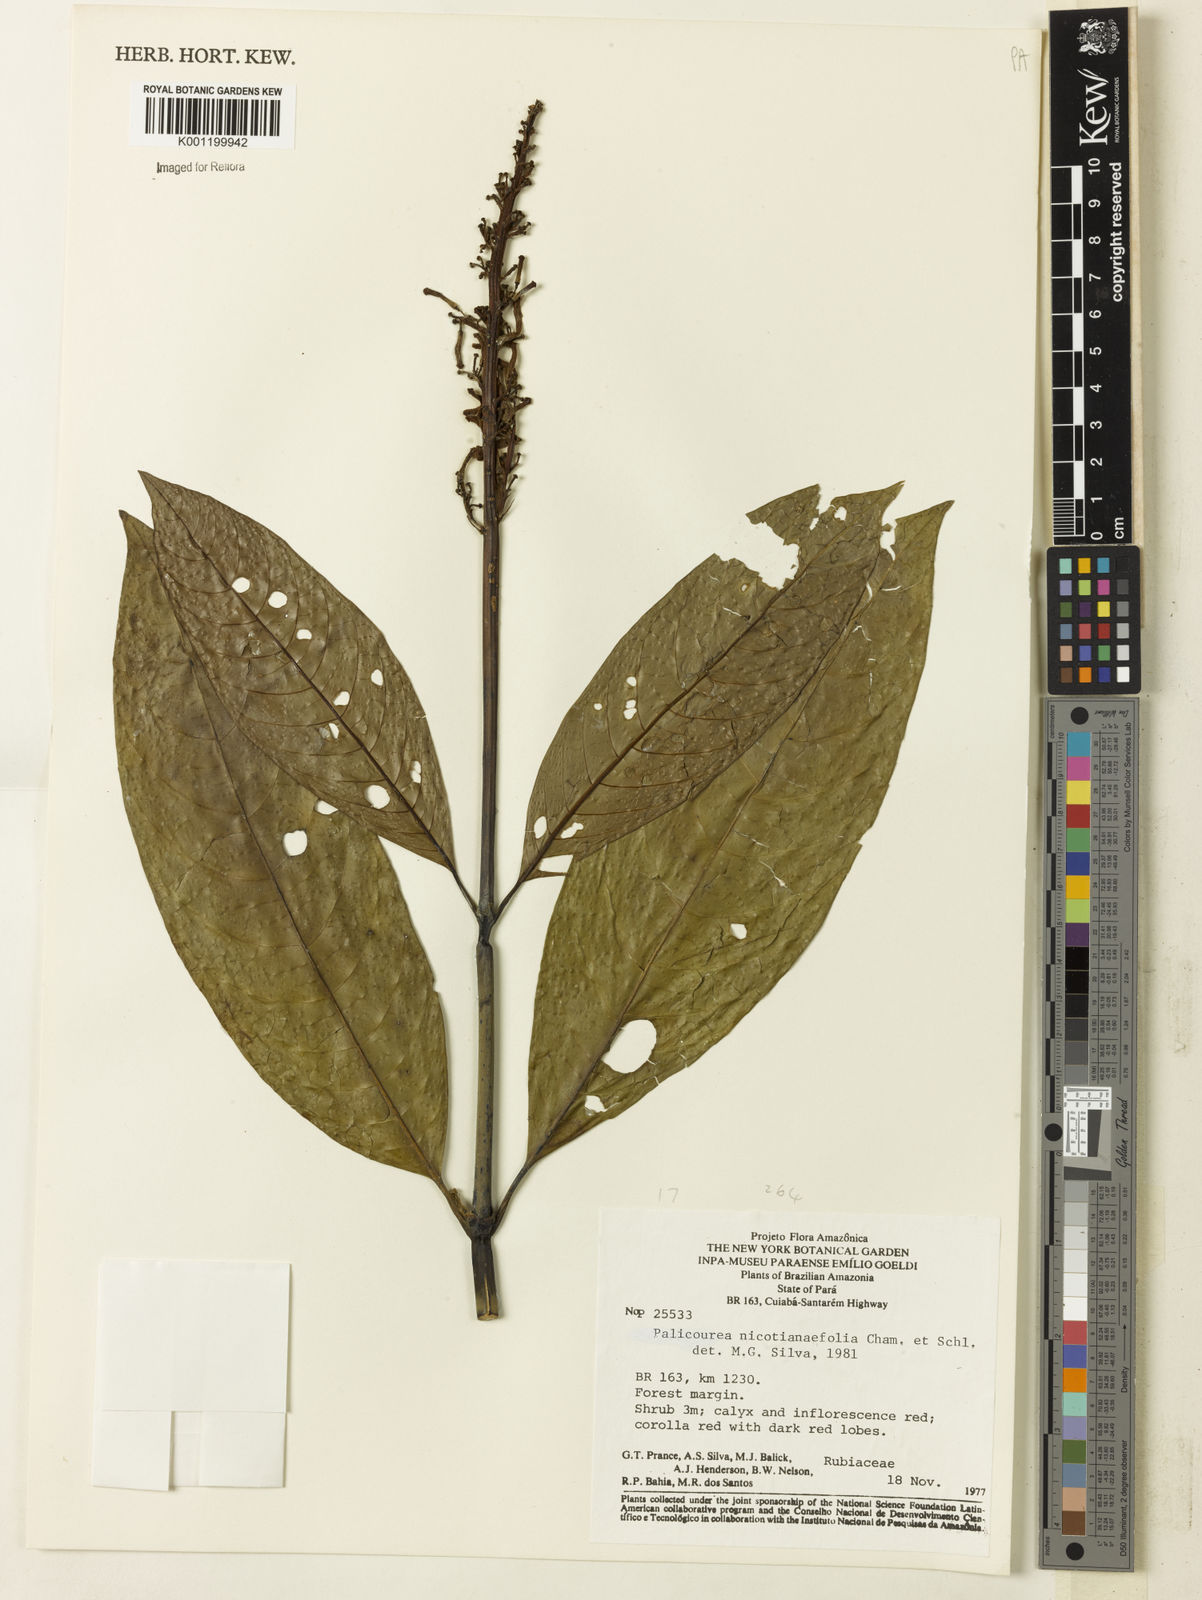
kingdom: Plantae
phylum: Tracheophyta
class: Magnoliopsida
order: Gentianales
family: Rubiaceae
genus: Palicourea
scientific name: Palicourea macrobotrys
